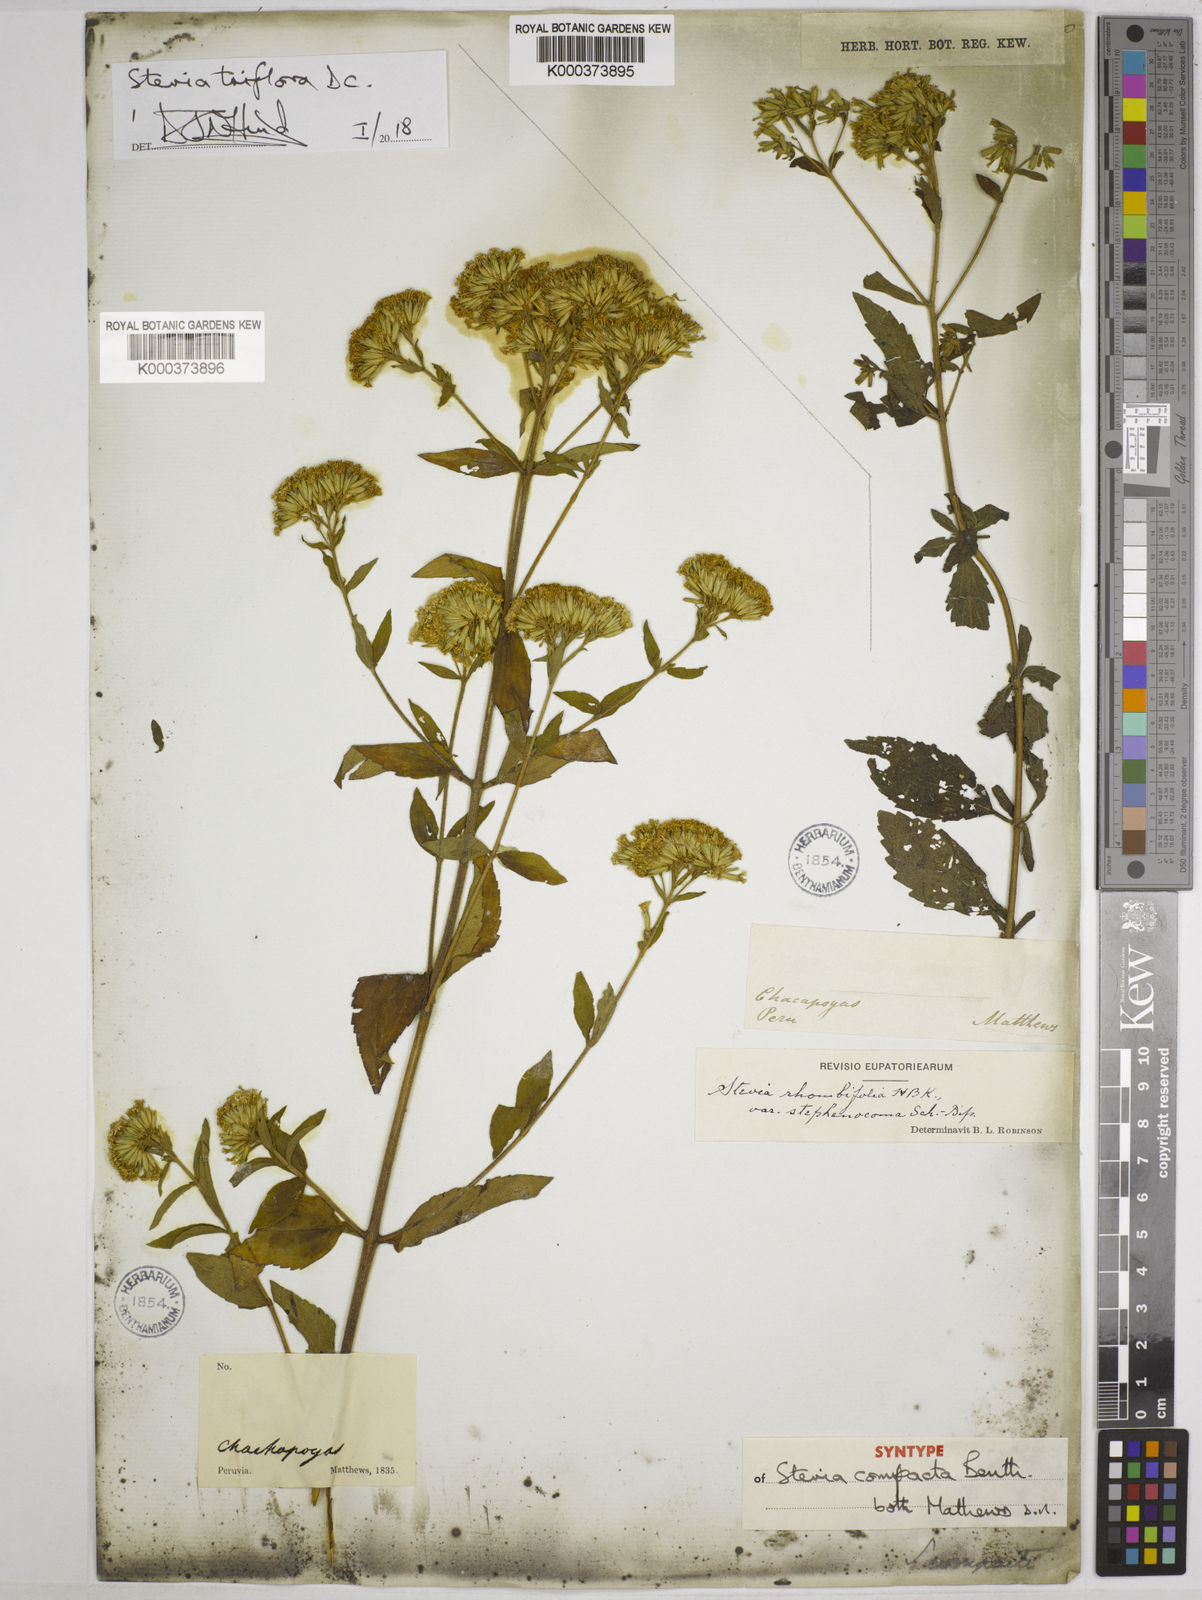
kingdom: Plantae
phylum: Tracheophyta
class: Magnoliopsida
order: Asterales
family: Asteraceae
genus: Stevia
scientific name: Stevia triflora
